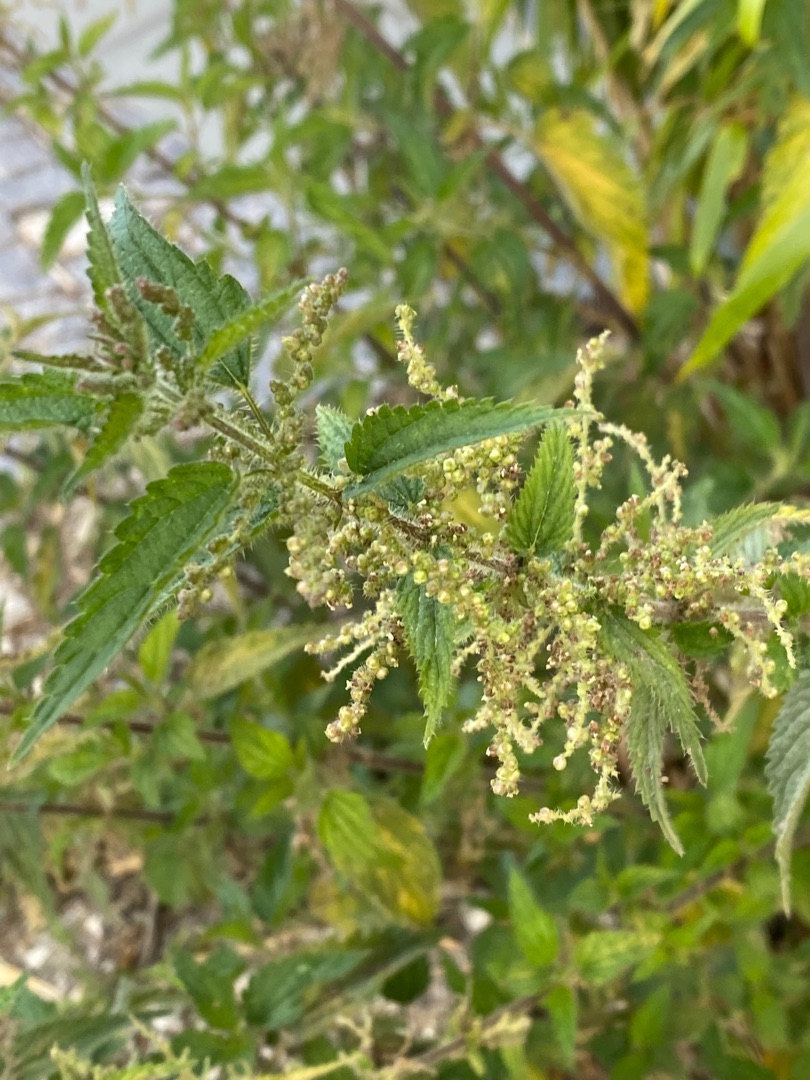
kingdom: Plantae
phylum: Tracheophyta
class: Magnoliopsida
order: Rosales
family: Urticaceae
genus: Urtica
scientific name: Urtica dioica
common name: Stor nælde
